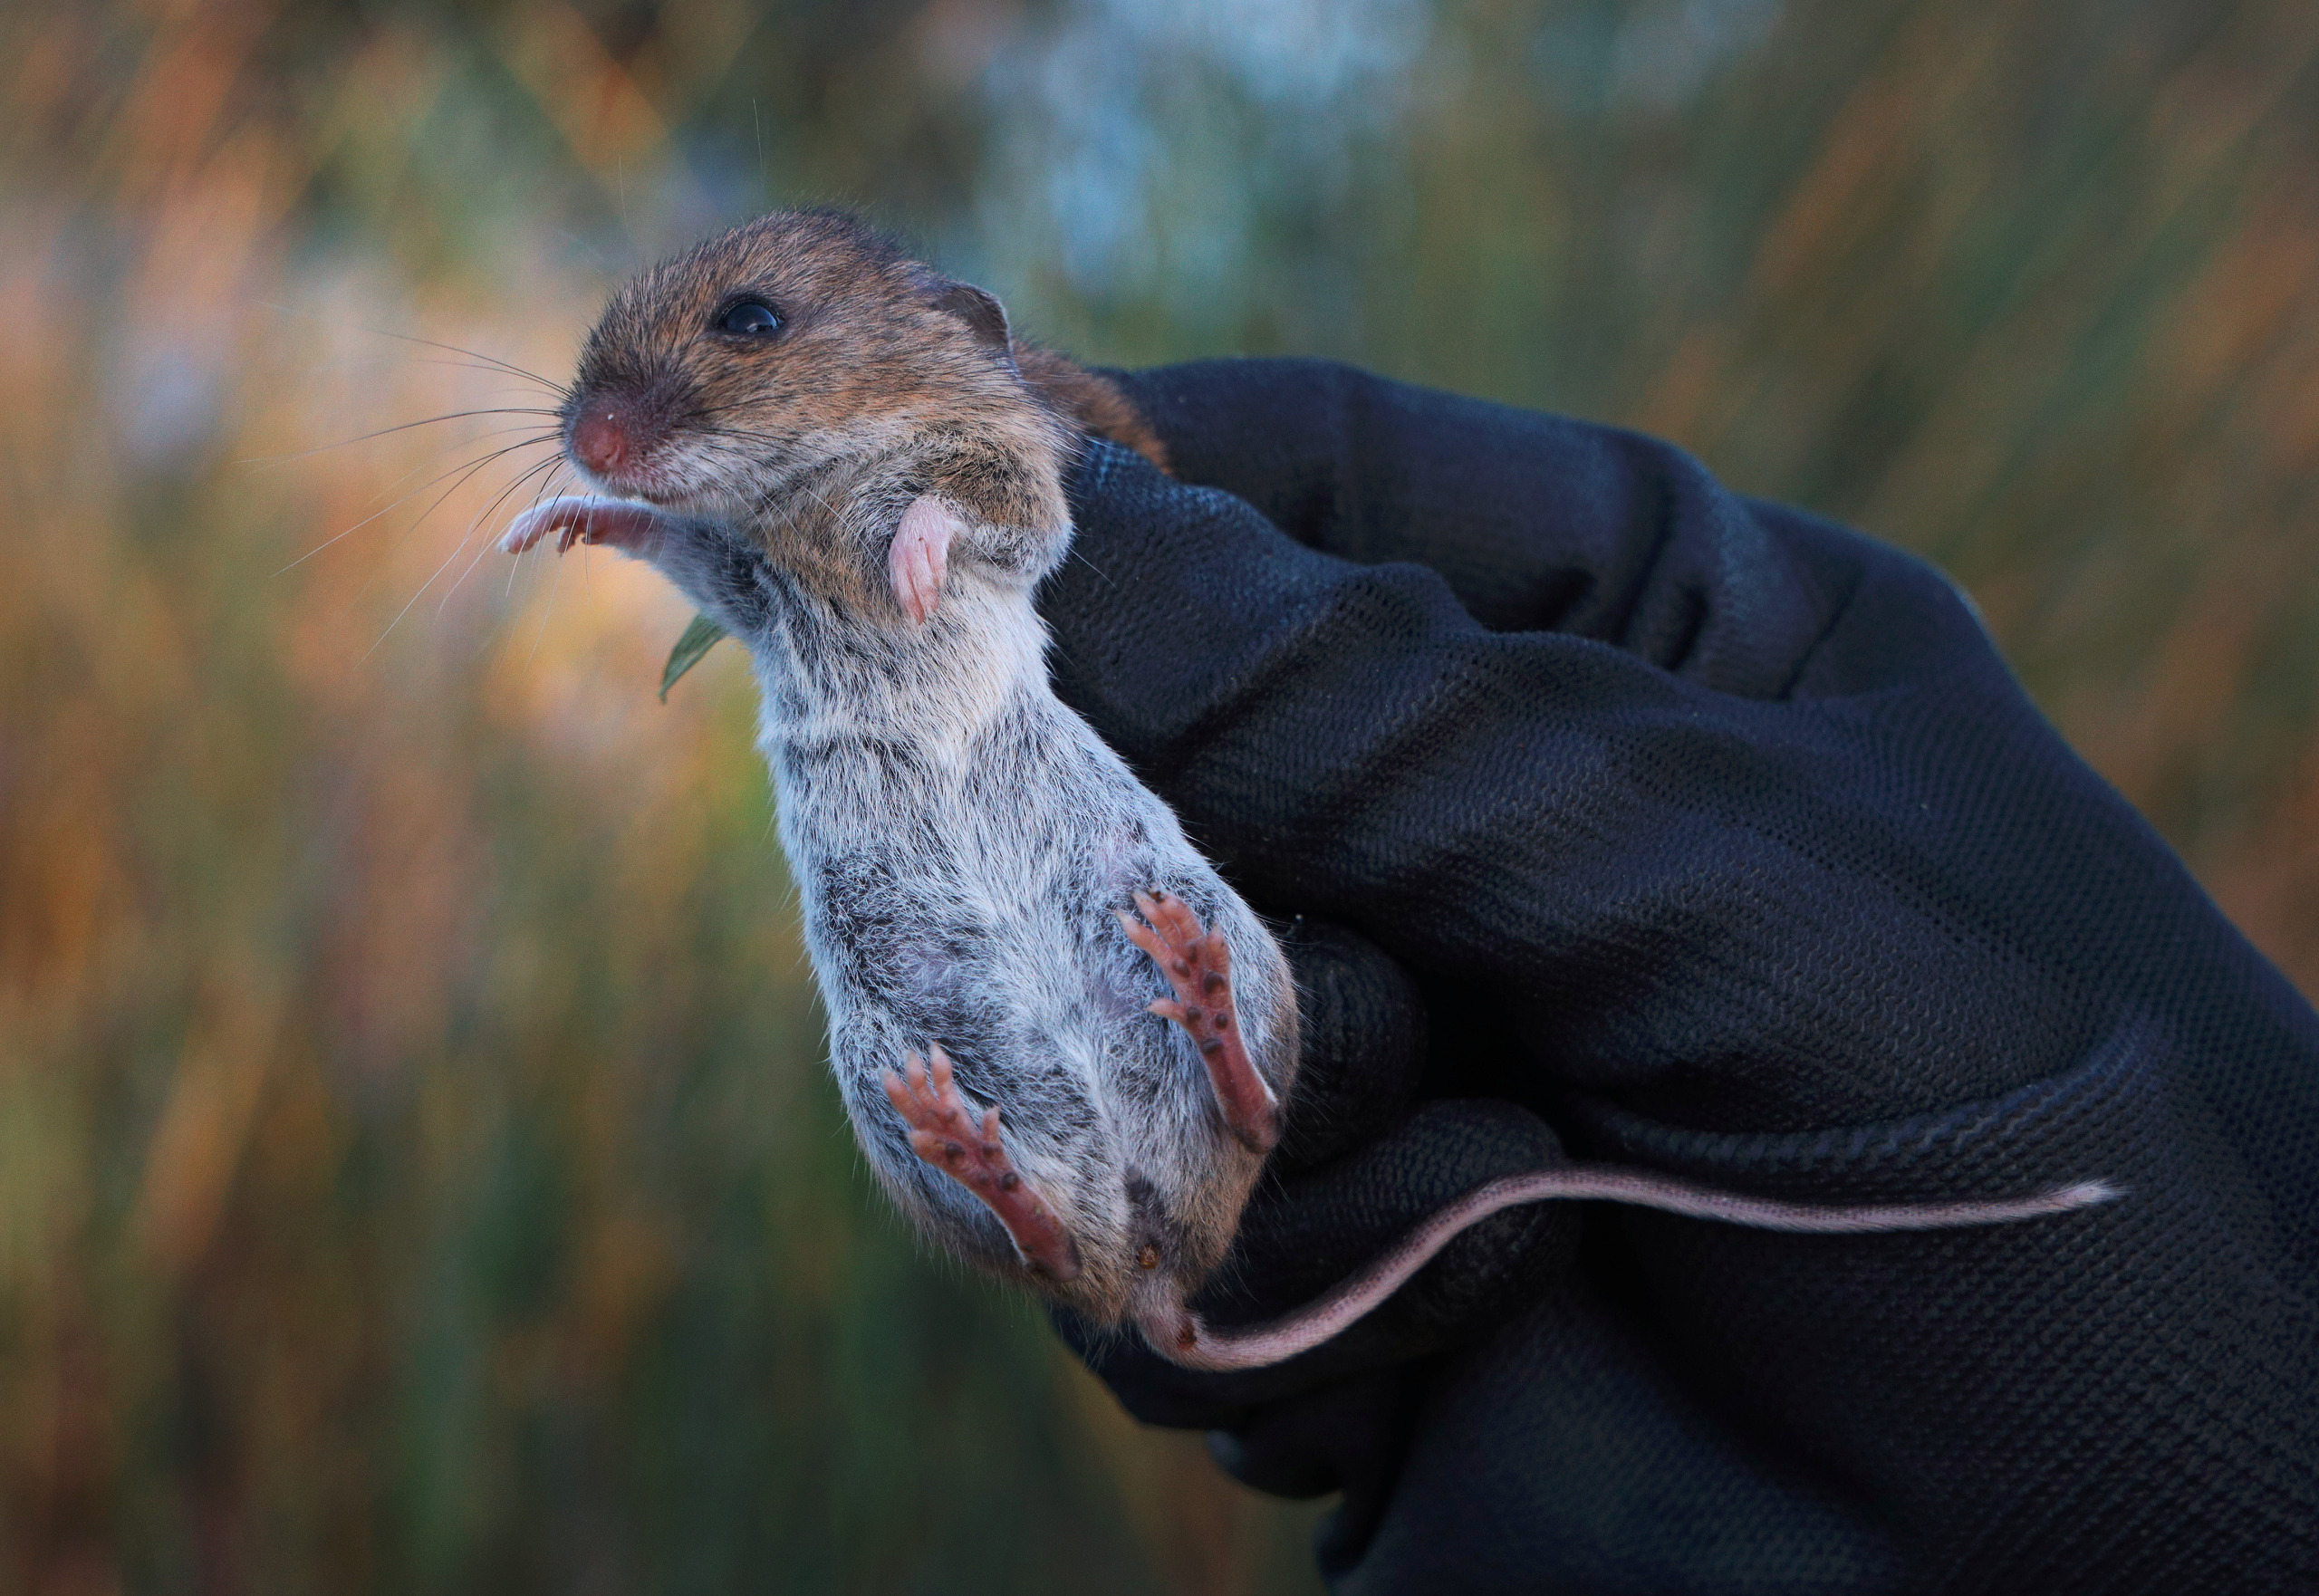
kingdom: Animalia
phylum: Chordata
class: Mammalia
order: Rodentia
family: Muridae
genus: Apodemus
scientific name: Apodemus sylvaticus
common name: Skovmus
